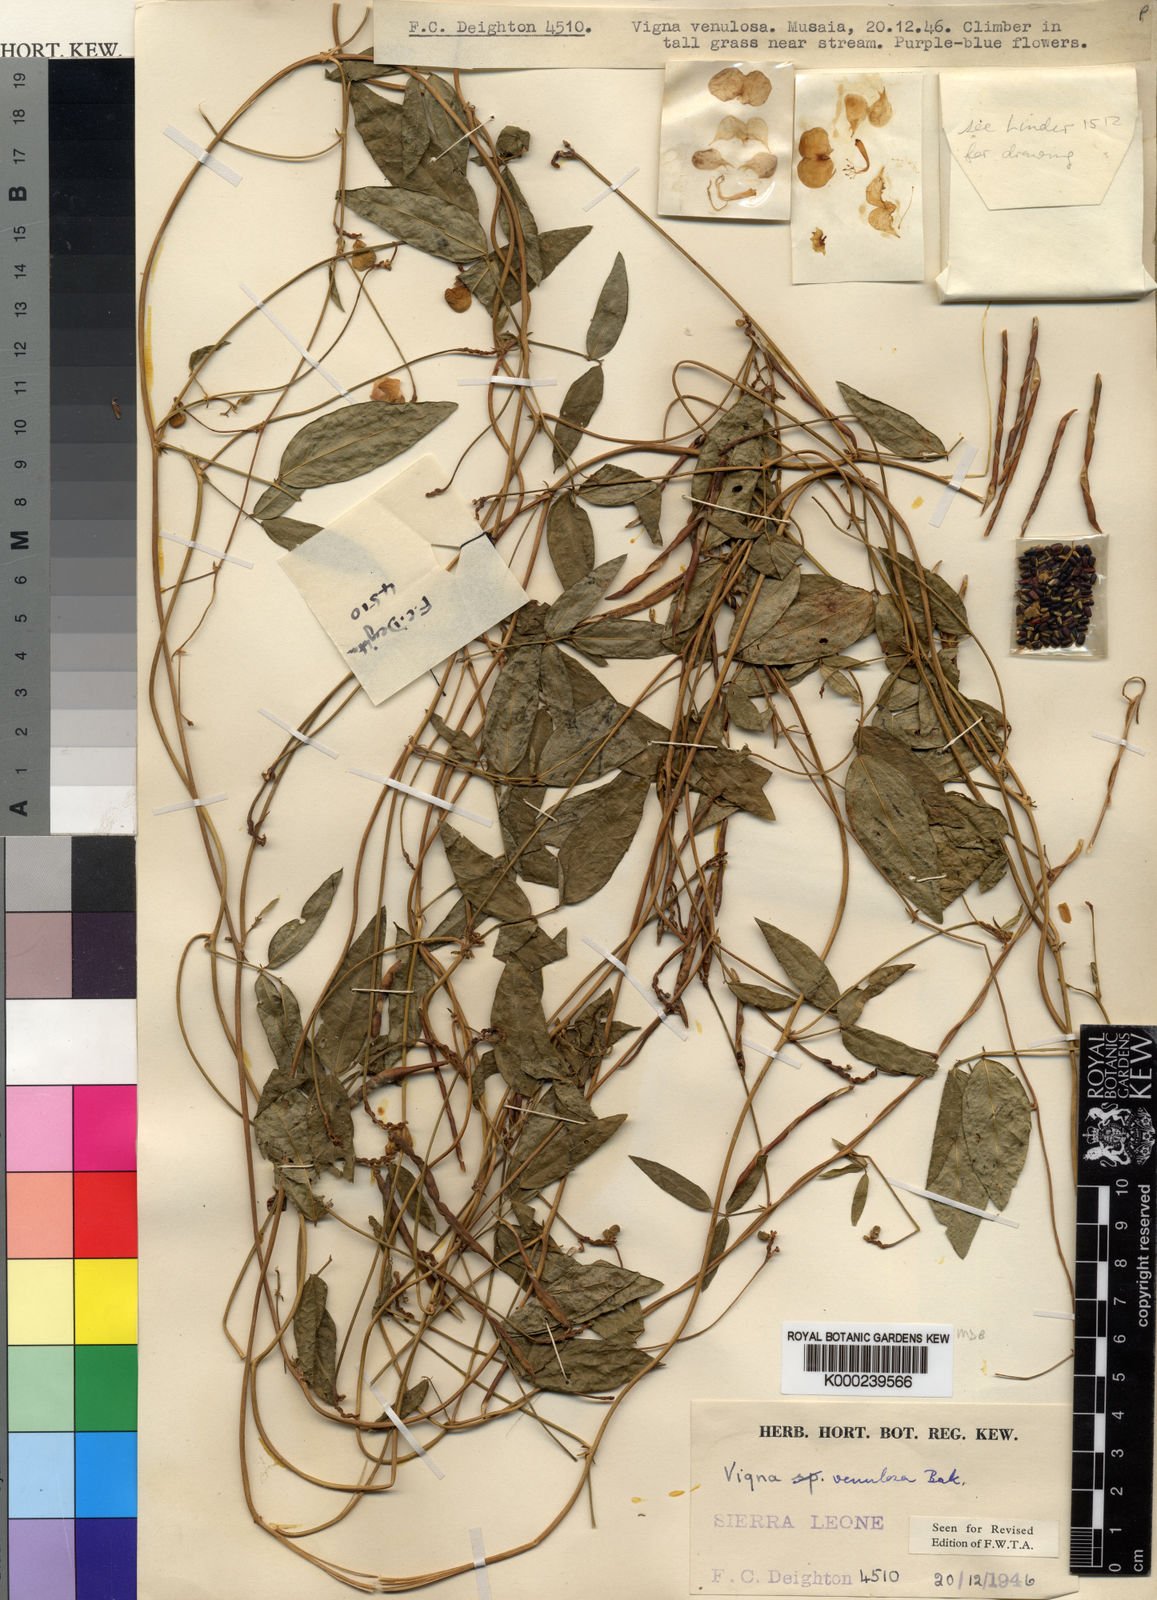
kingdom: Plantae
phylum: Tracheophyta
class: Magnoliopsida
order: Fabales
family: Fabaceae
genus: Vigna
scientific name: Vigna venulosa
